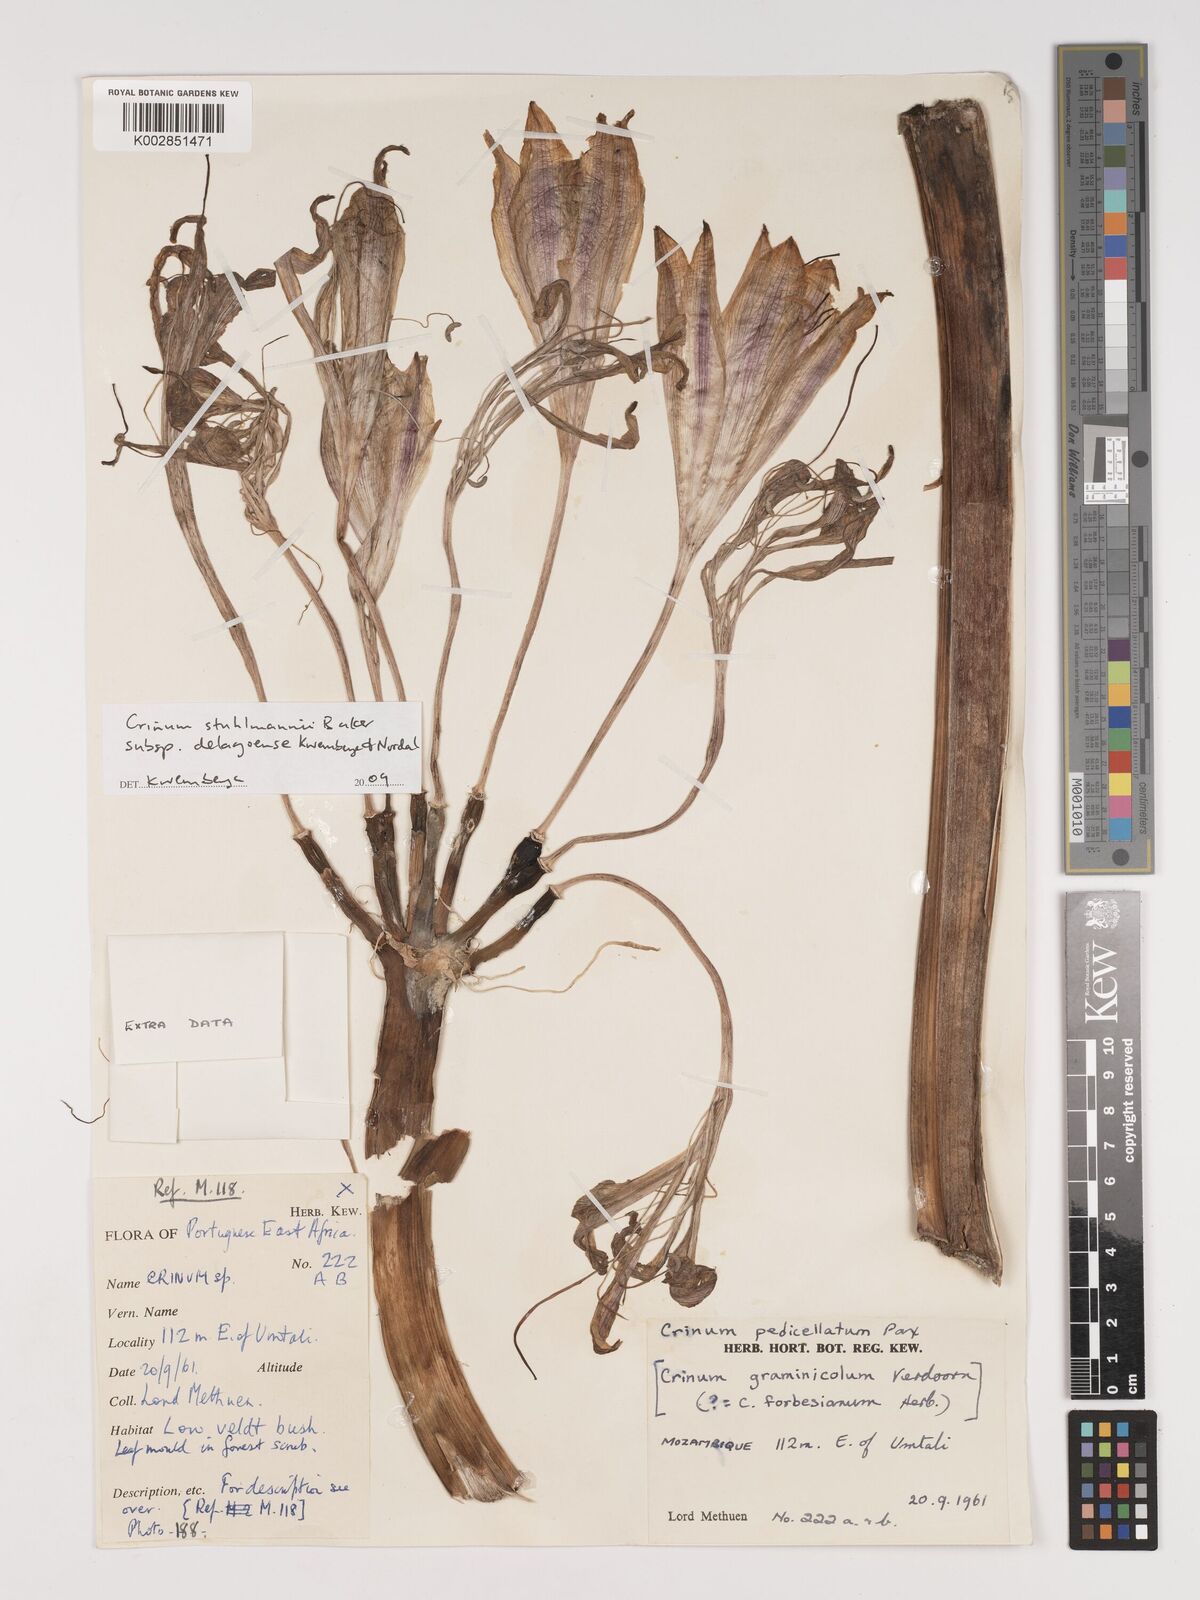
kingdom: Plantae
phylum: Tracheophyta
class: Liliopsida
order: Asparagales
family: Amaryllidaceae
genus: Crinum
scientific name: Crinum stuhlmannii
